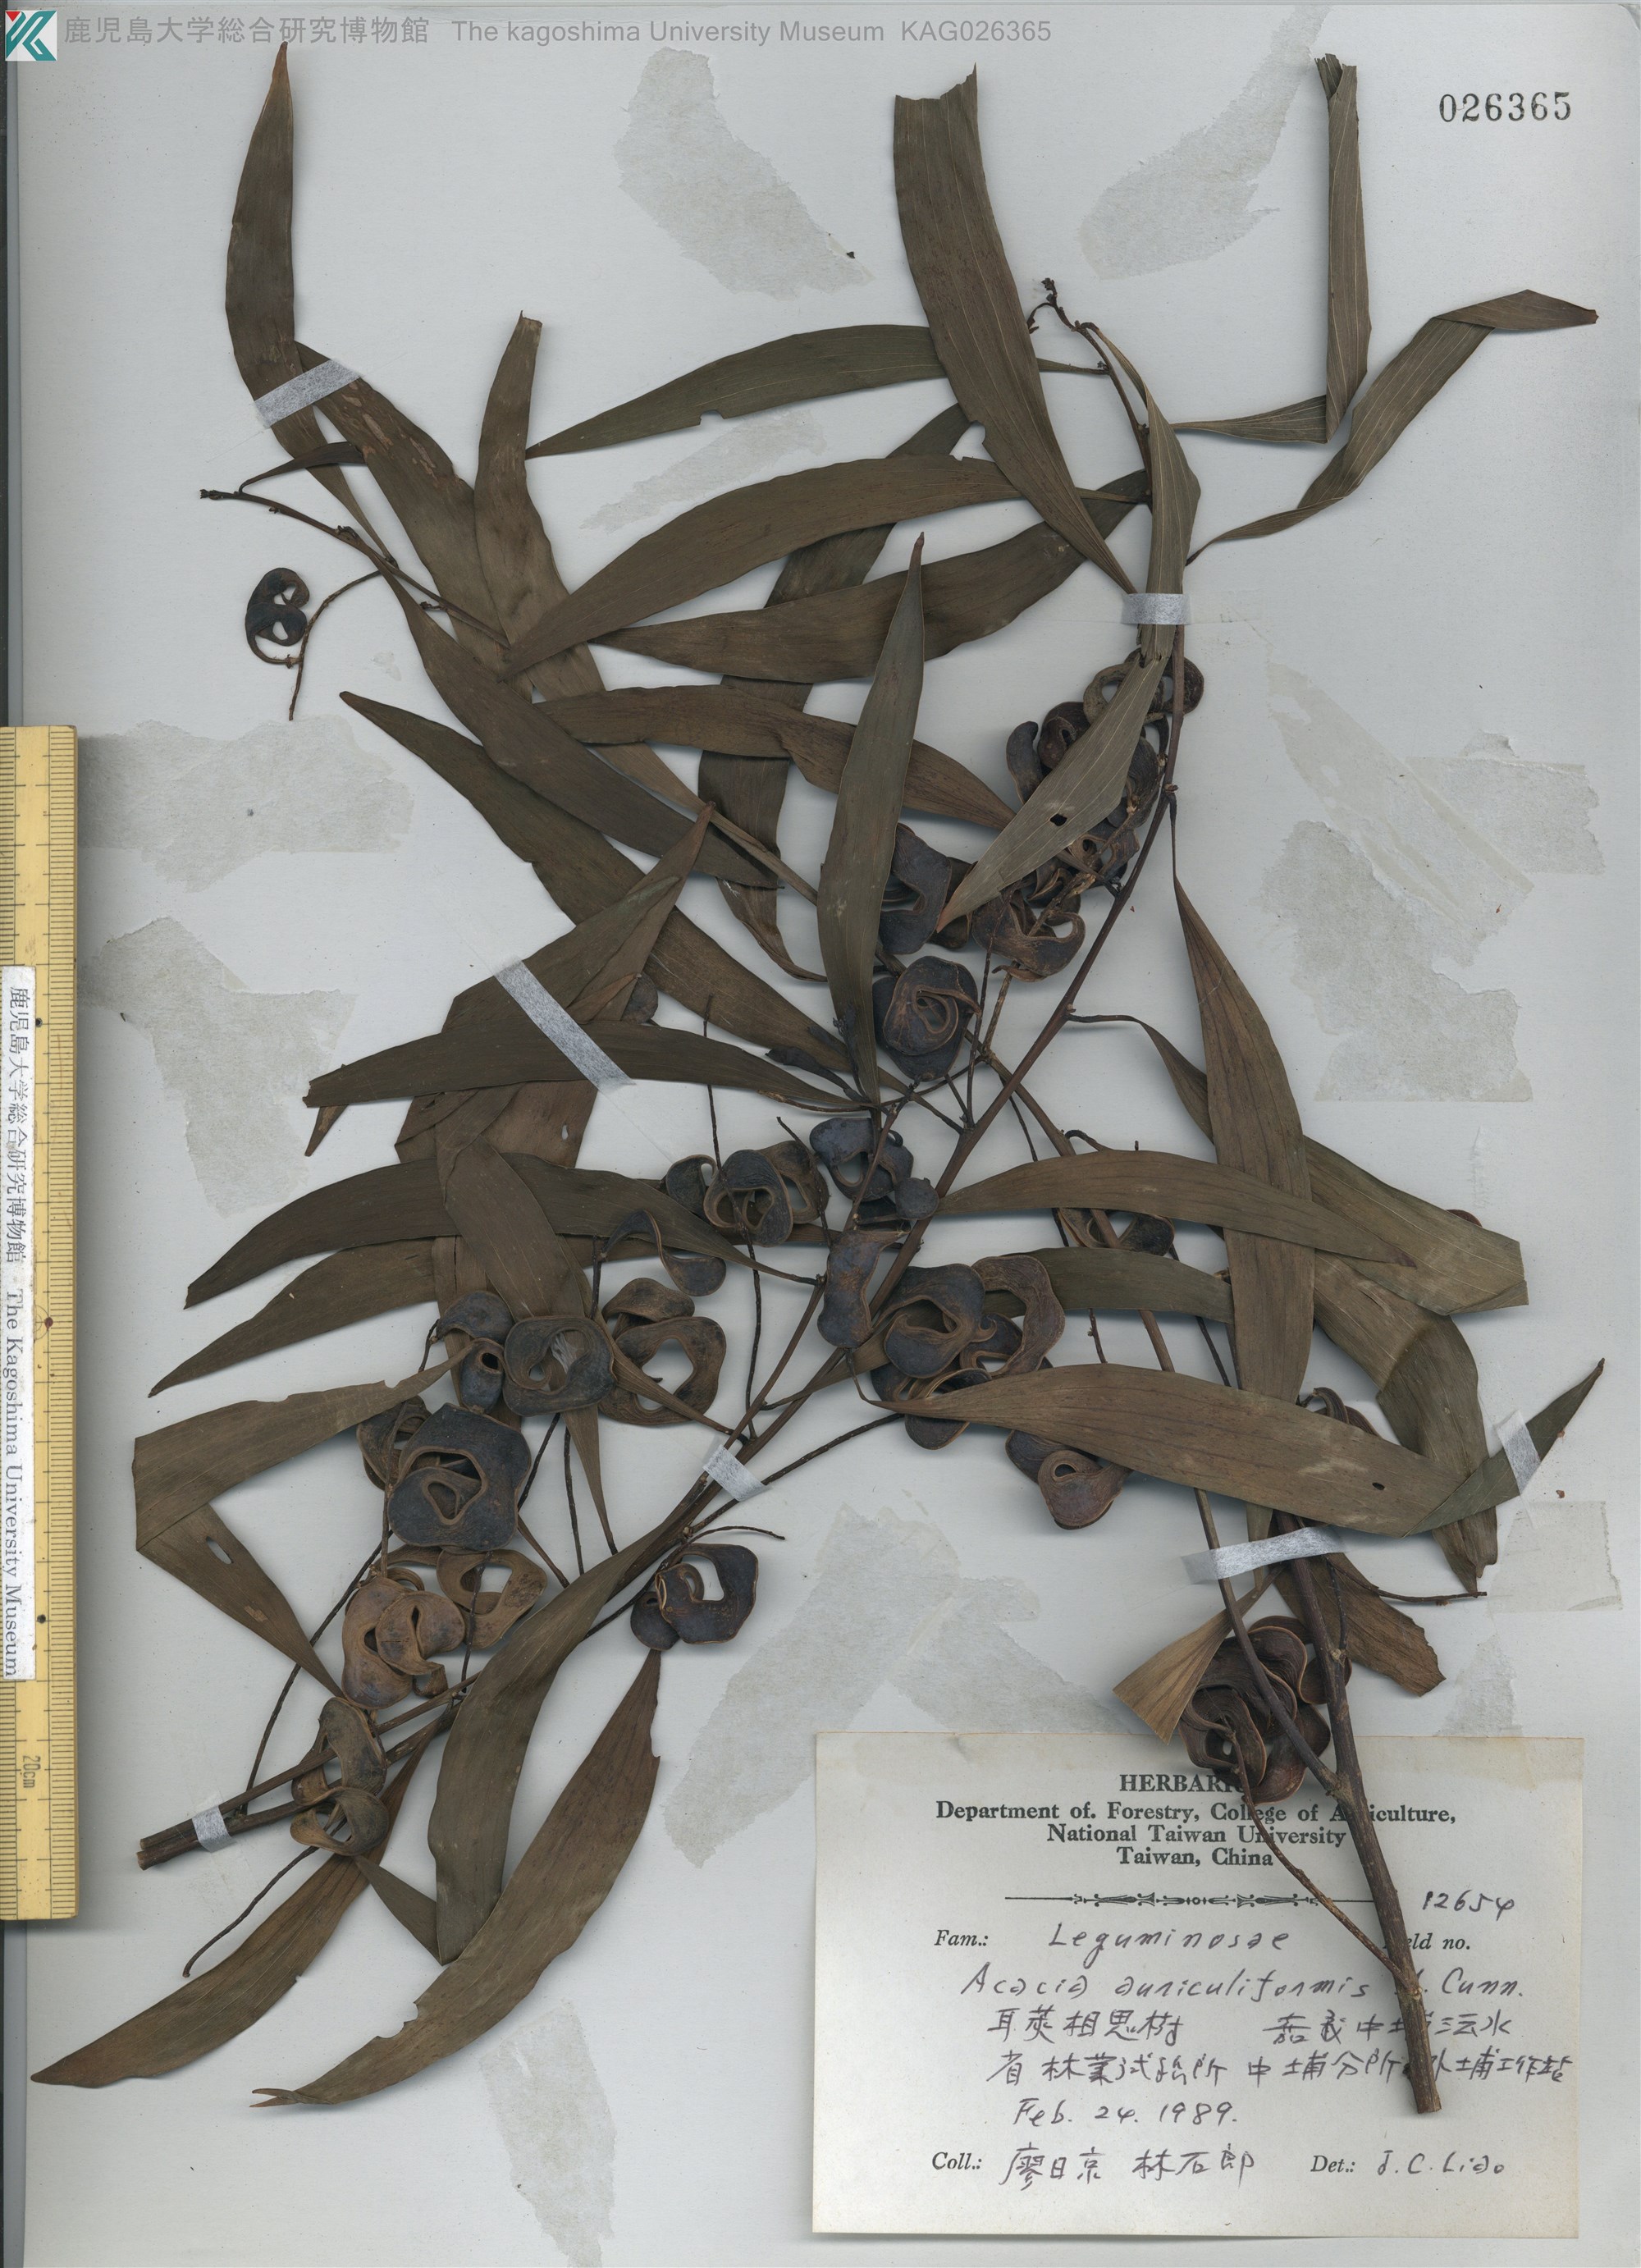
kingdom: Plantae
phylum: Tracheophyta
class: Magnoliopsida
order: Fabales
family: Fabaceae
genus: Acacia
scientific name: Acacia auriculiformis
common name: Earleaf acacia
